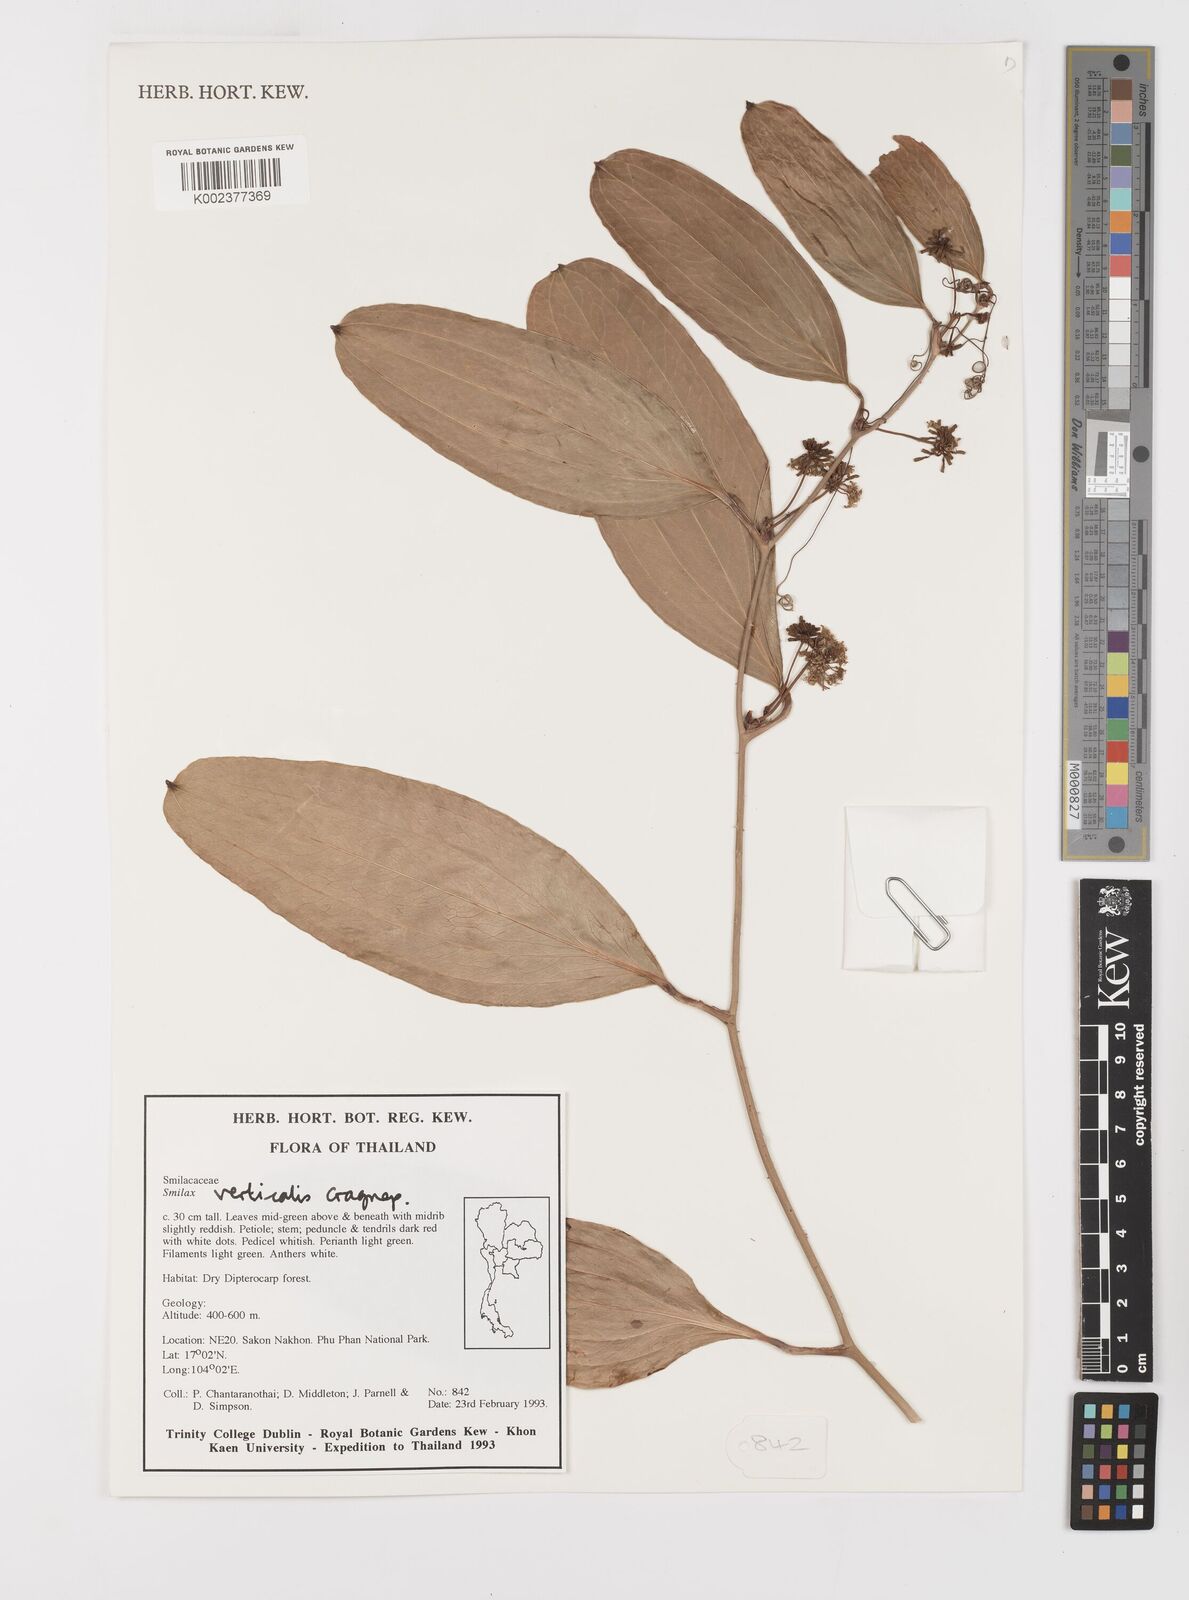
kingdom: Plantae
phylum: Tracheophyta
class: Liliopsida
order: Liliales
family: Smilacaceae
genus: Smilax
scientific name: Smilax verticalis
